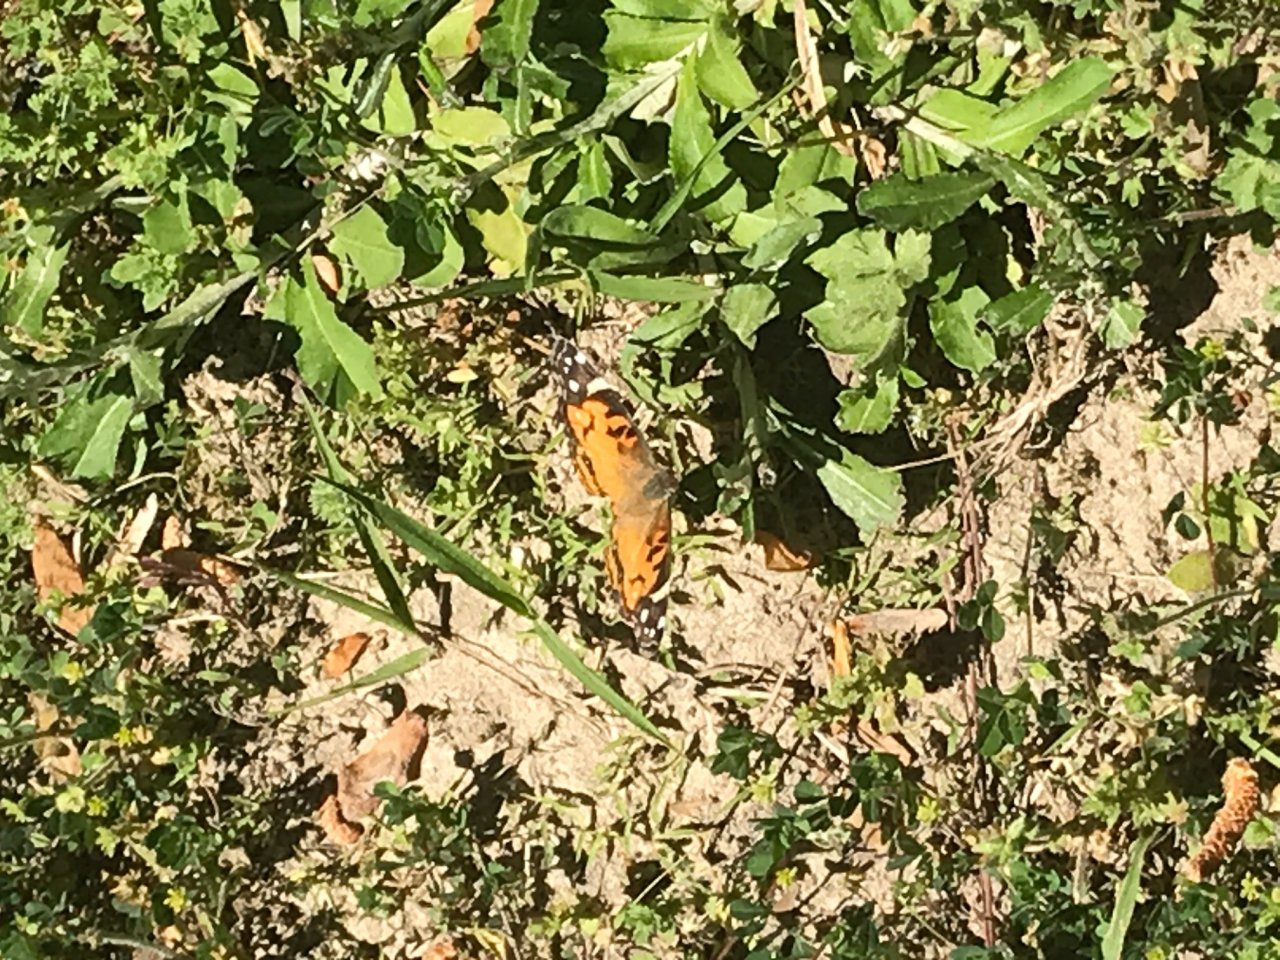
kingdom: Animalia
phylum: Arthropoda
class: Insecta
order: Lepidoptera
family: Nymphalidae
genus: Vanessa
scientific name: Vanessa virginiensis
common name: American Lady
